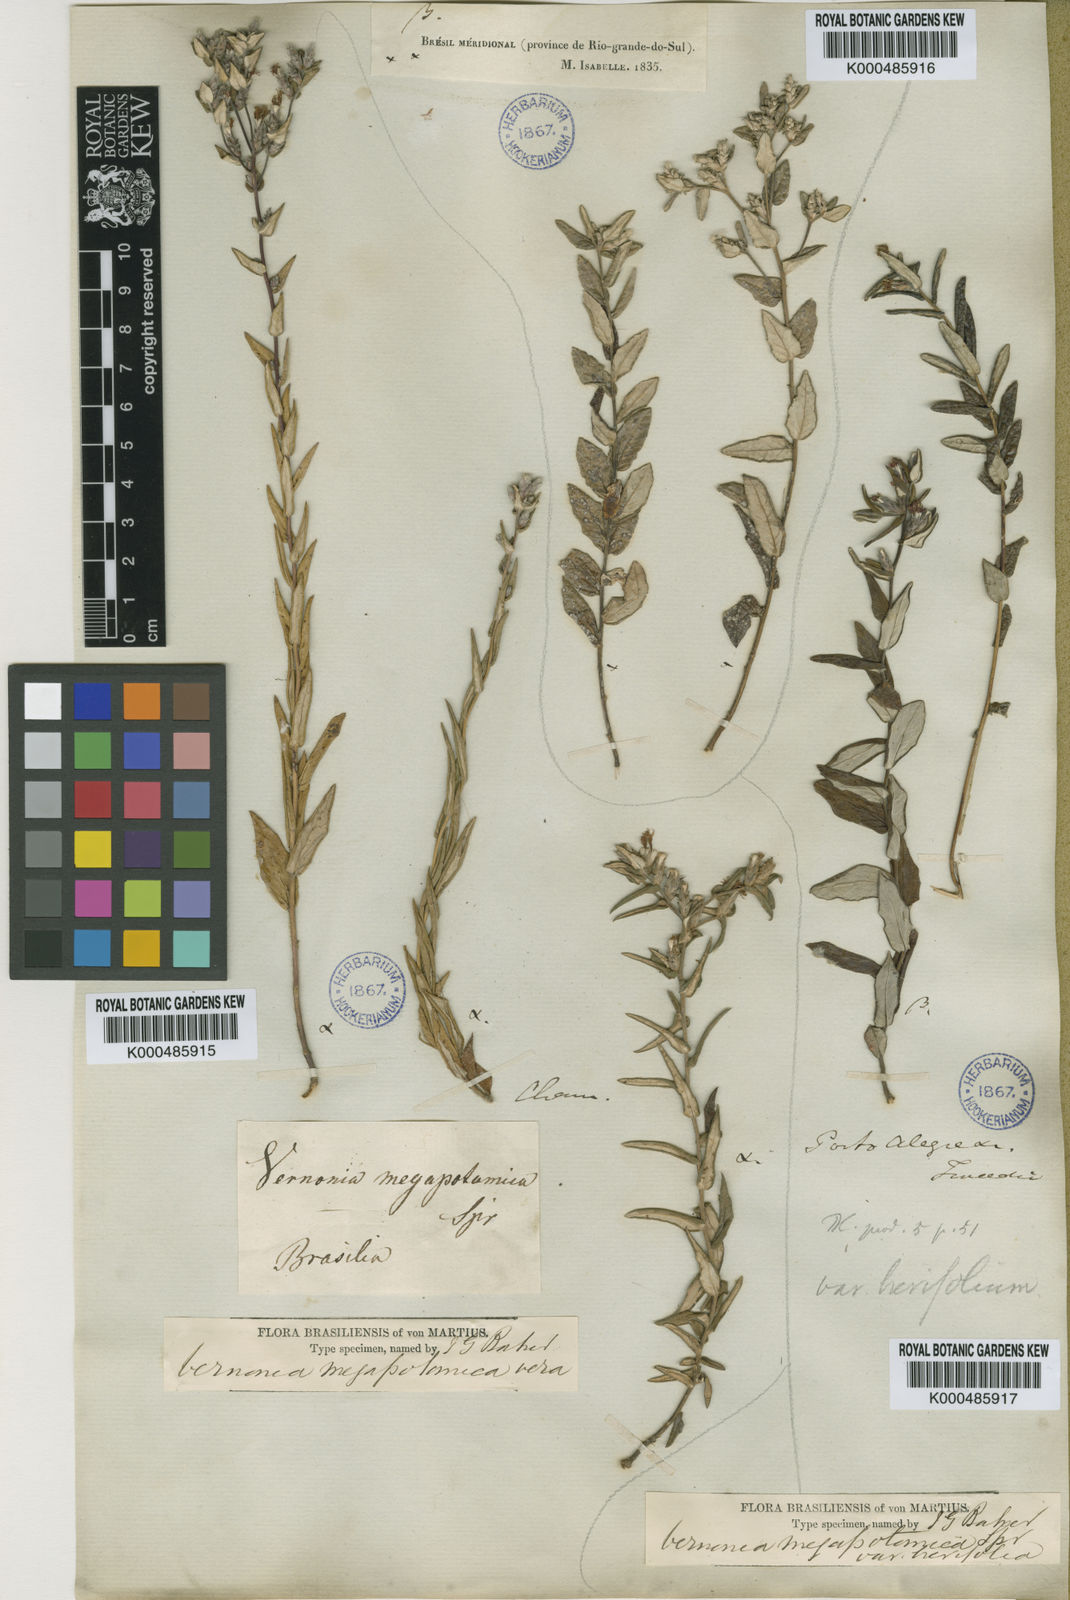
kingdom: Plantae
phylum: Tracheophyta
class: Magnoliopsida
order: Asterales
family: Asteraceae
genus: Stenocephalum
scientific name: Stenocephalum megapotamicum
